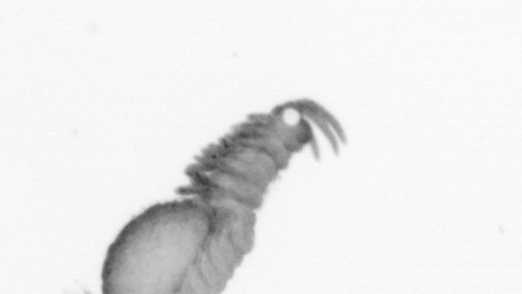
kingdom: Animalia
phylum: Annelida
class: Polychaeta
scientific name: Polychaeta
